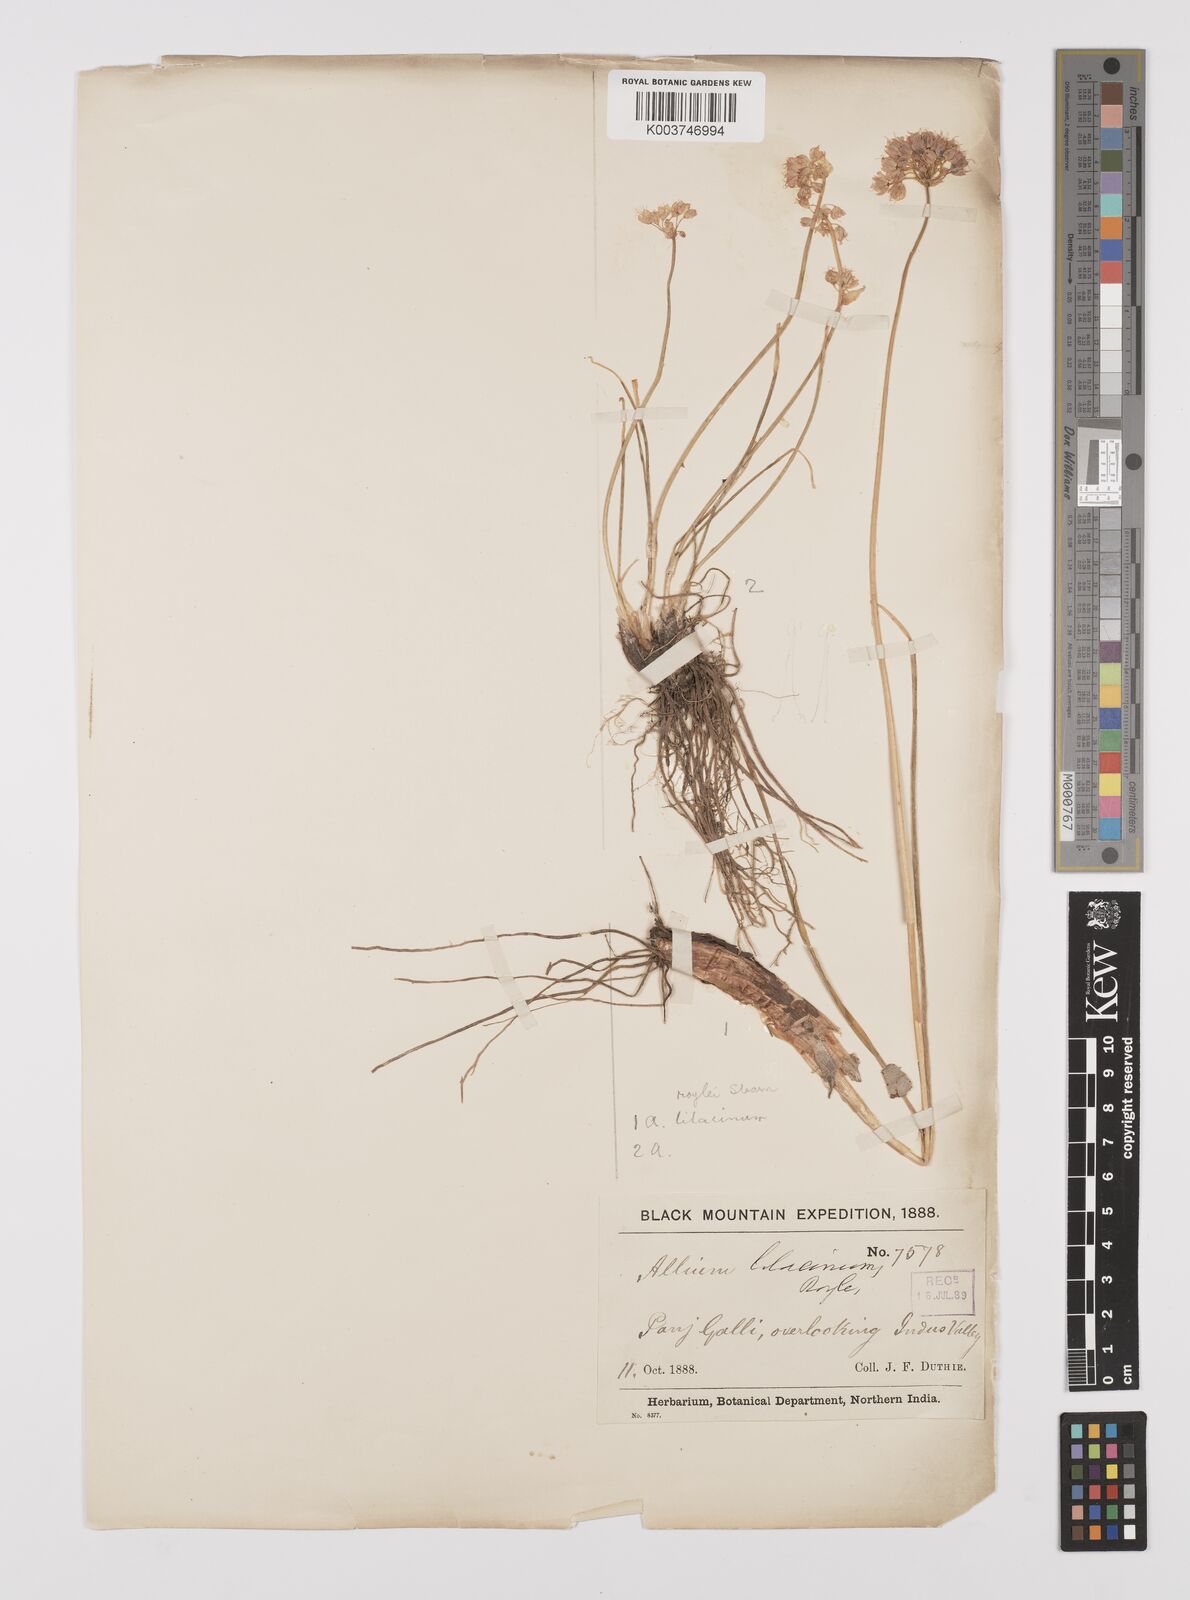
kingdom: Plantae
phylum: Tracheophyta
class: Liliopsida
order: Asparagales
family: Amaryllidaceae
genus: Allium
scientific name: Allium roylei
